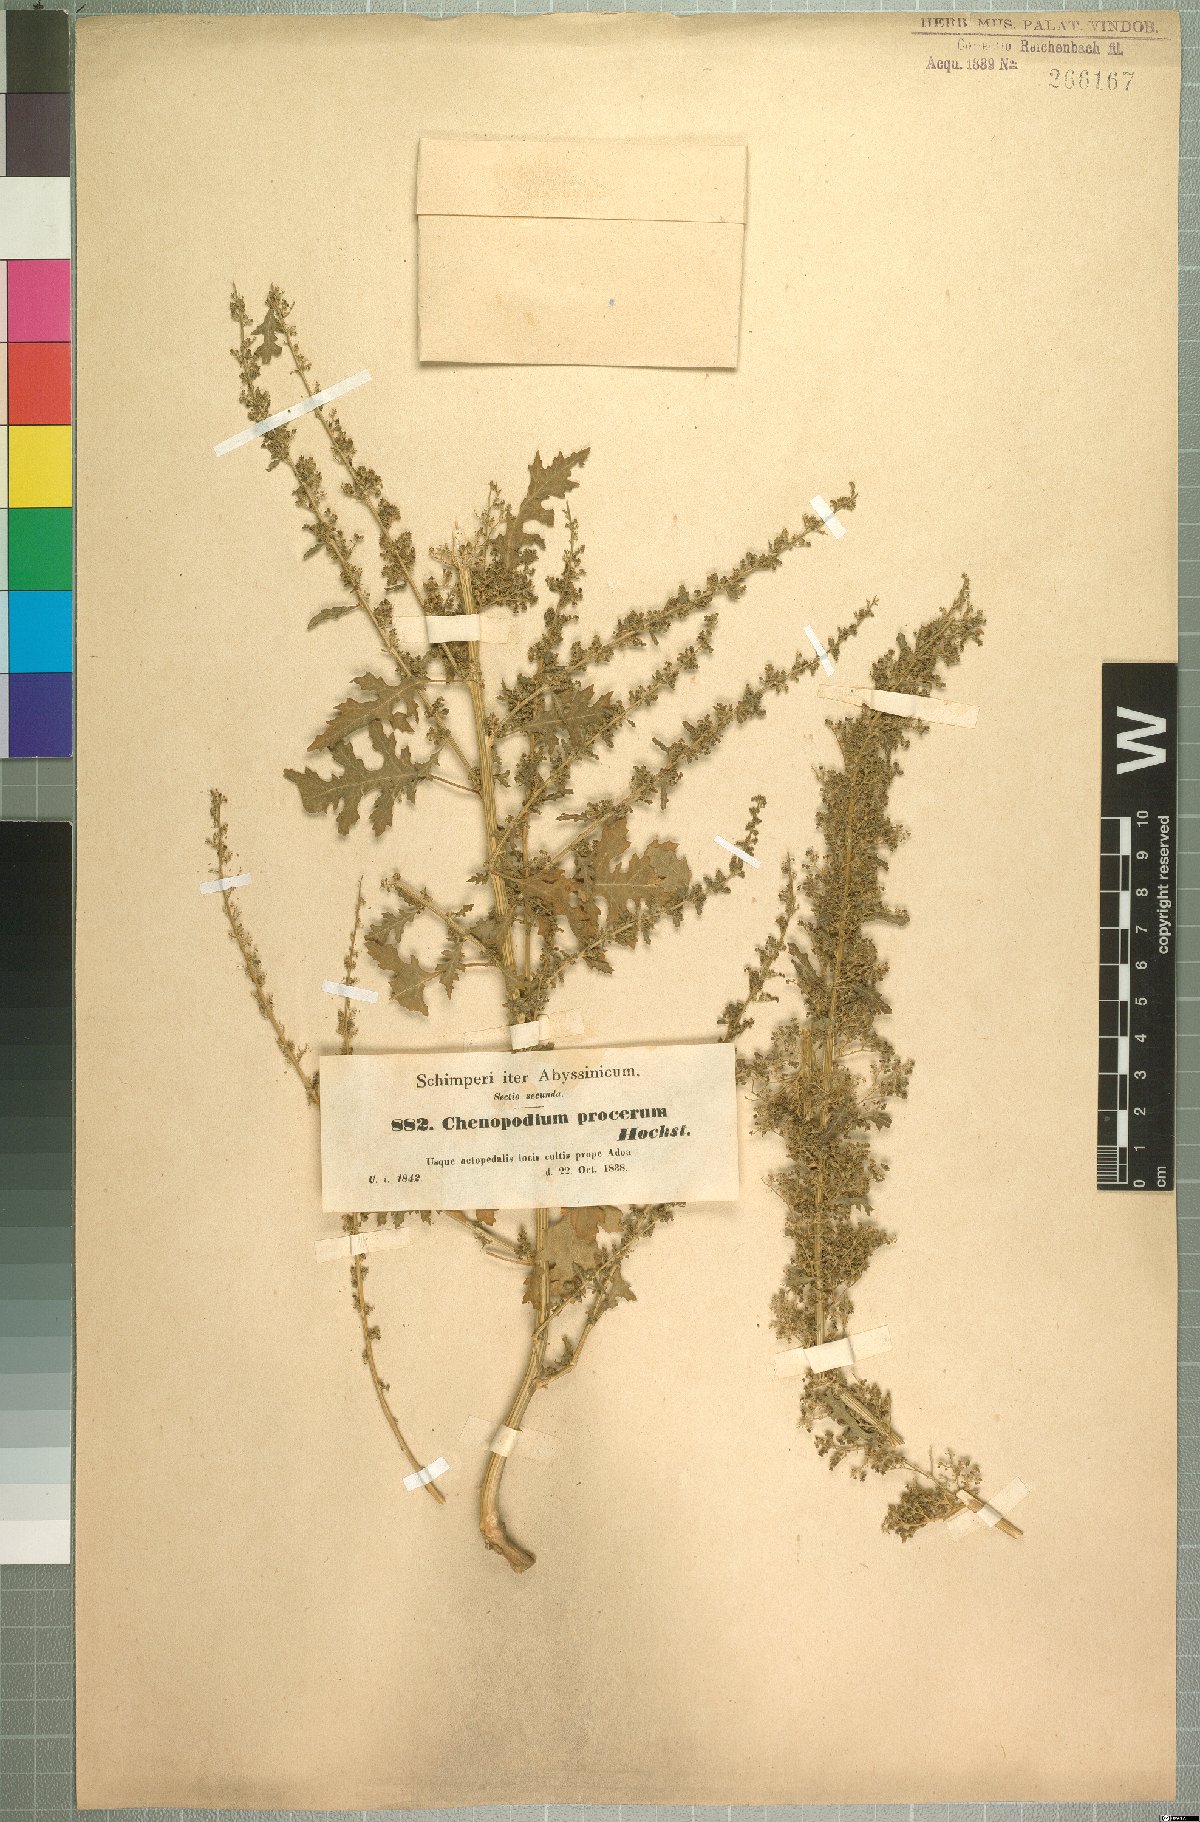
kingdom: Plantae
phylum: Tracheophyta
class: Magnoliopsida
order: Caryophyllales
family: Amaranthaceae
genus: Dysphania
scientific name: Dysphania procera
